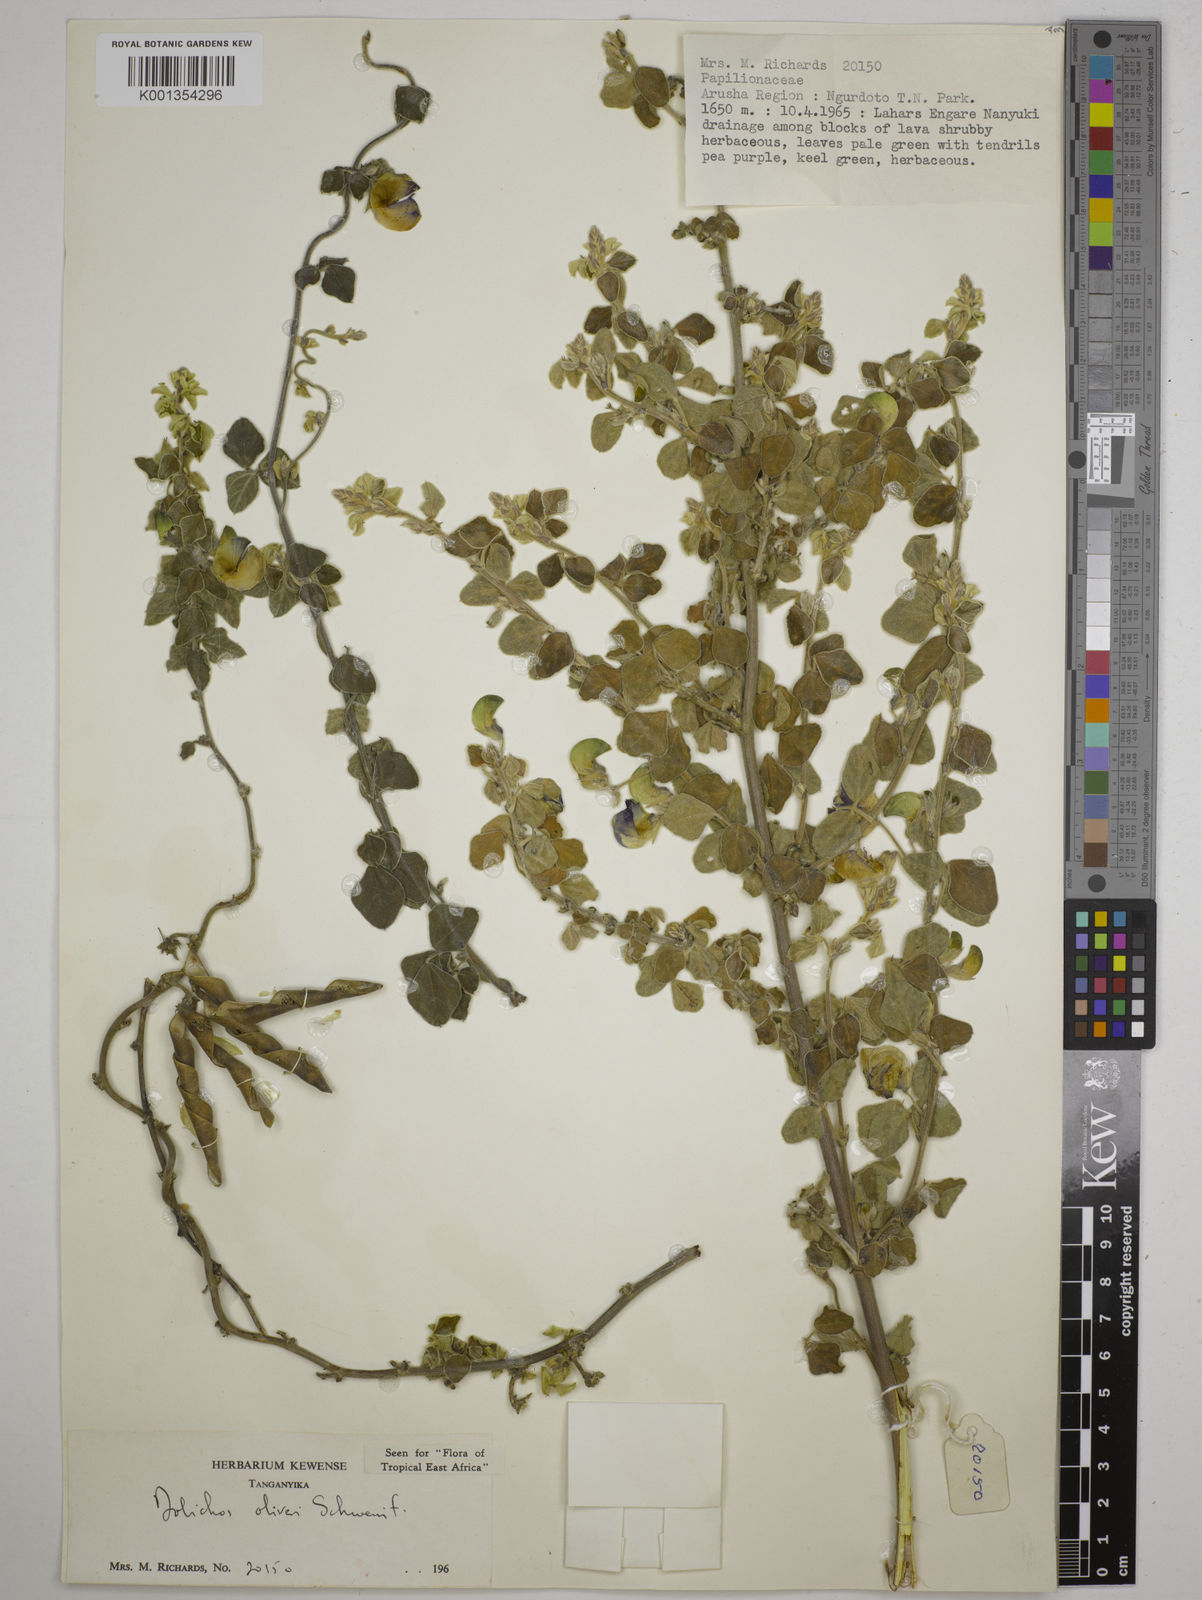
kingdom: Plantae
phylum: Tracheophyta
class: Magnoliopsida
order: Fabales
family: Fabaceae
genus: Dolichos
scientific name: Dolichos oliveri
